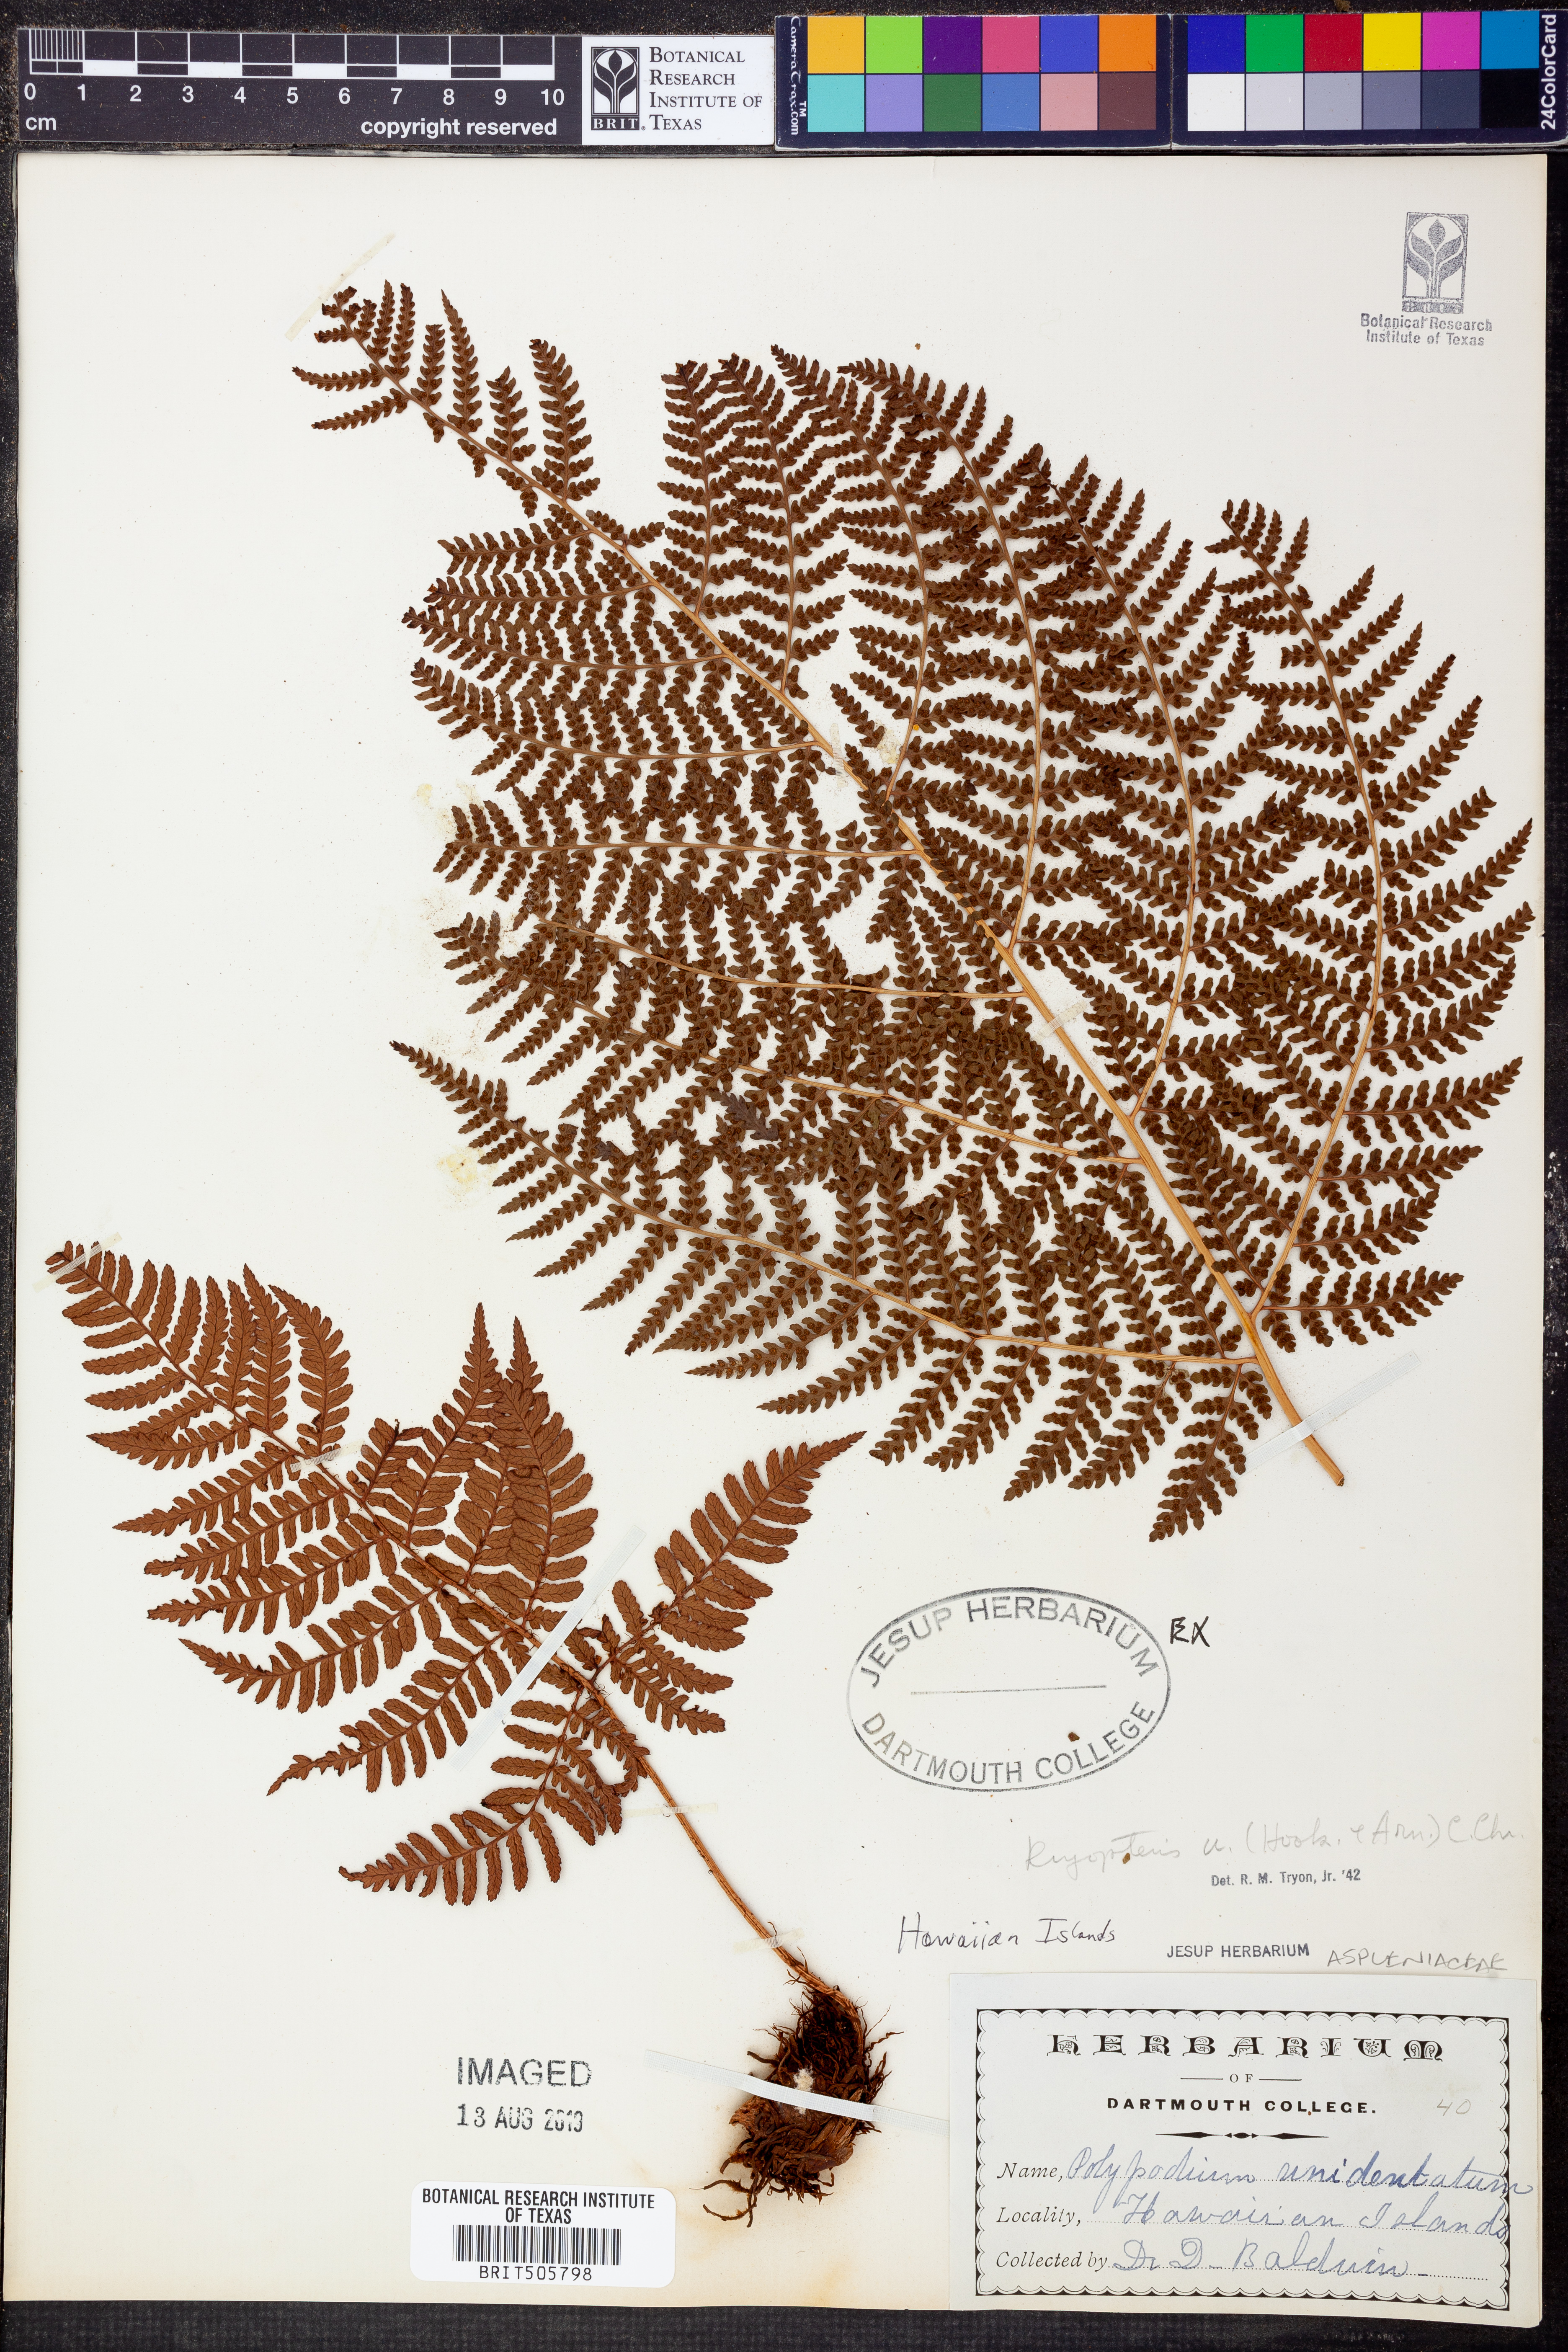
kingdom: Plantae
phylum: Tracheophyta
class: Polypodiopsida
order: Polypodiales
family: Dryopteridaceae
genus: Dryopteris
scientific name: Dryopteris unidentata
